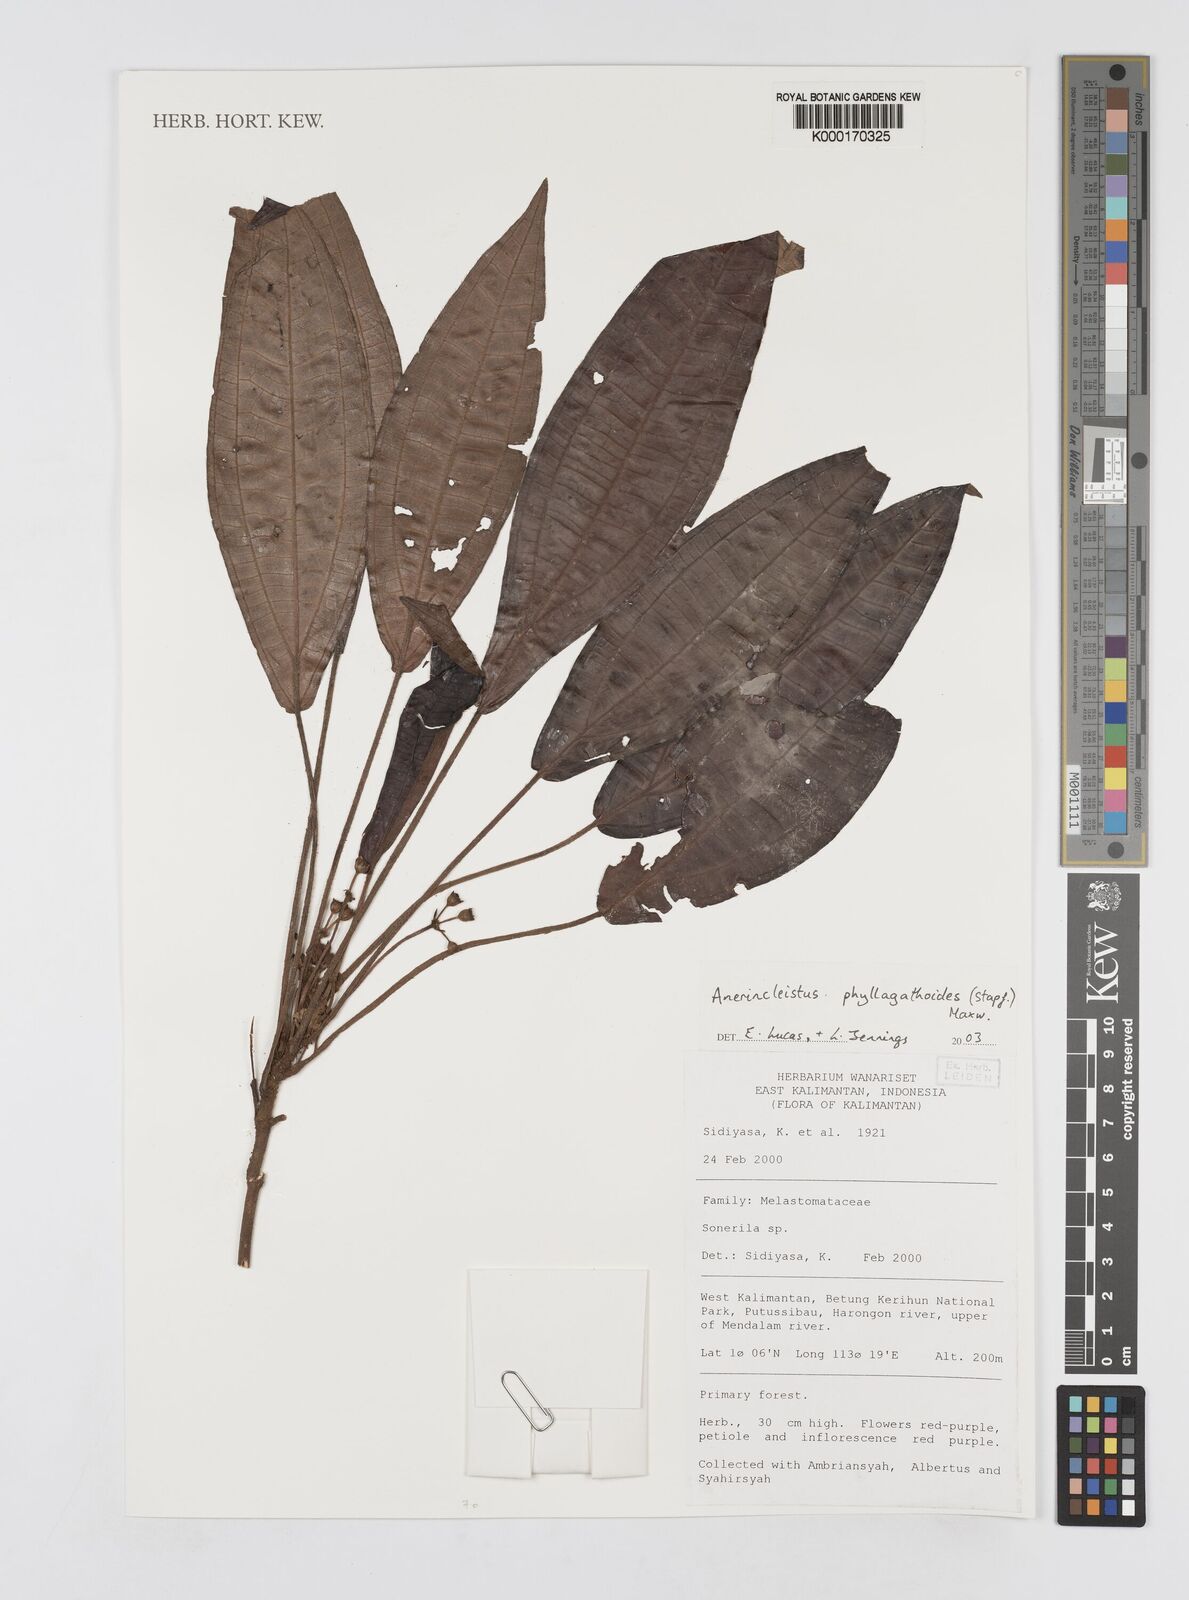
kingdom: Plantae
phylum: Tracheophyta
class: Magnoliopsida
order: Myrtales
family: Melastomataceae
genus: Anerincleistus
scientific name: Anerincleistus phyllagathoides
